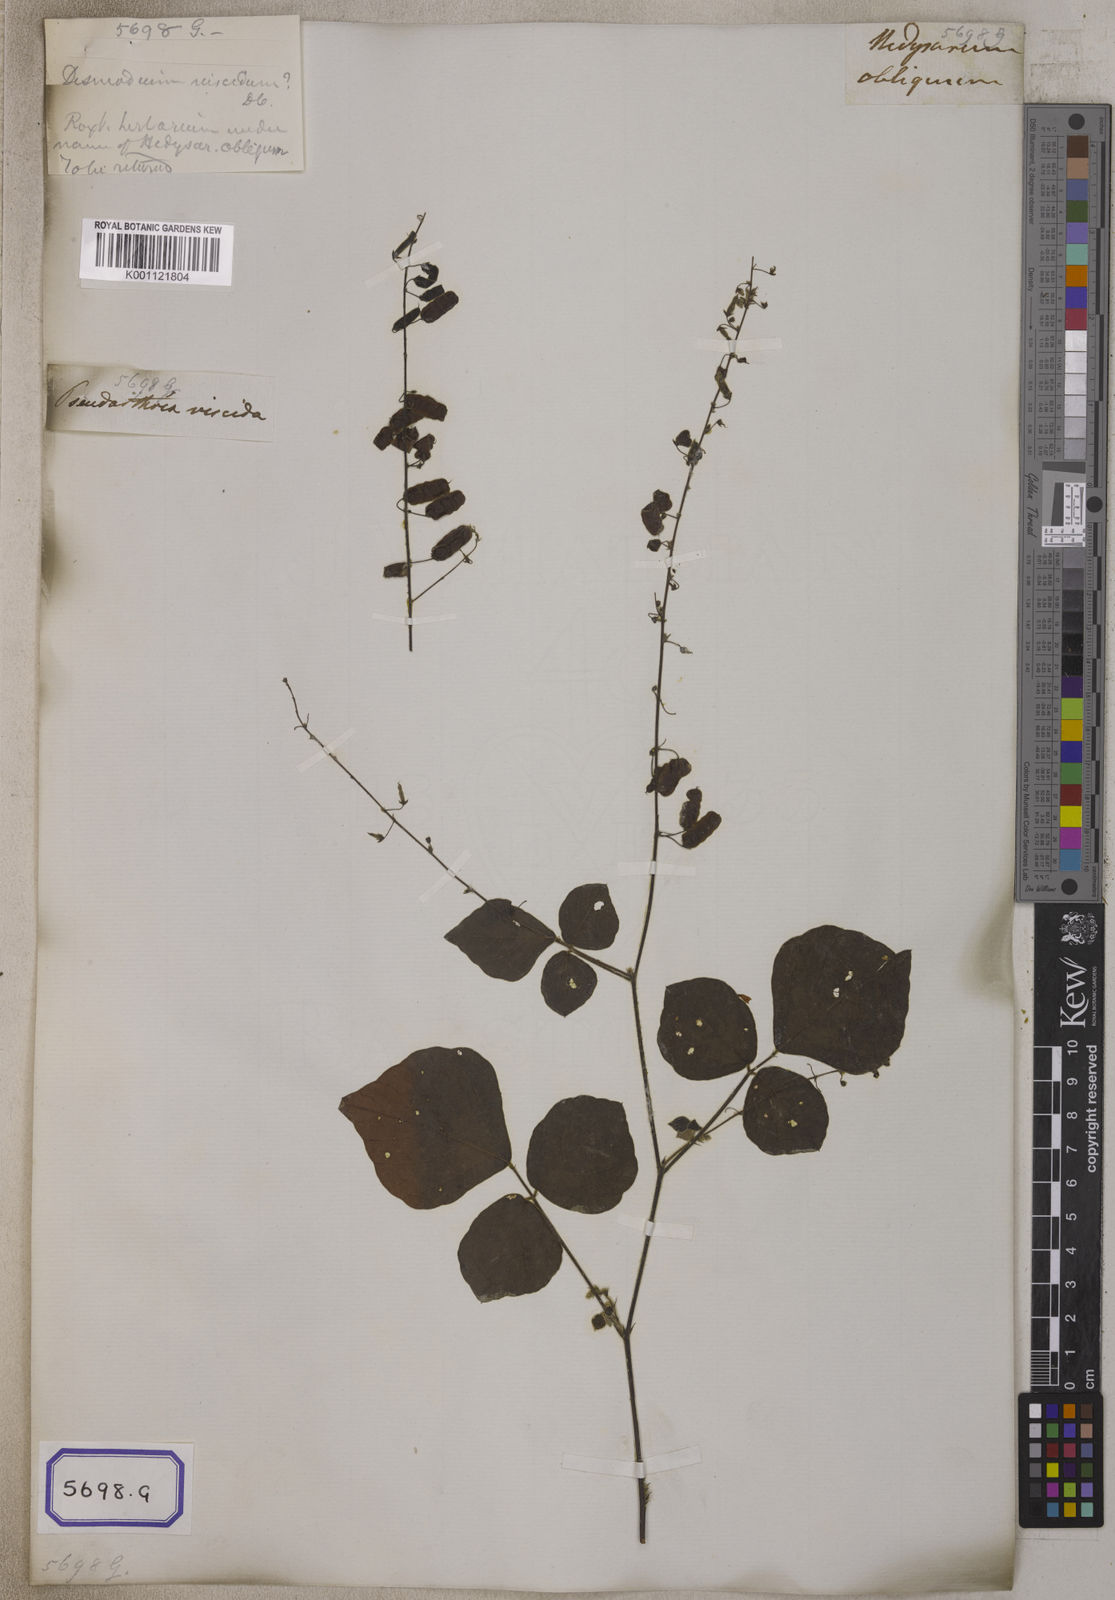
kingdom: Plantae
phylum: Tracheophyta
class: Magnoliopsida
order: Fabales
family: Fabaceae
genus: Pseudarthria
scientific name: Pseudarthria viscida
